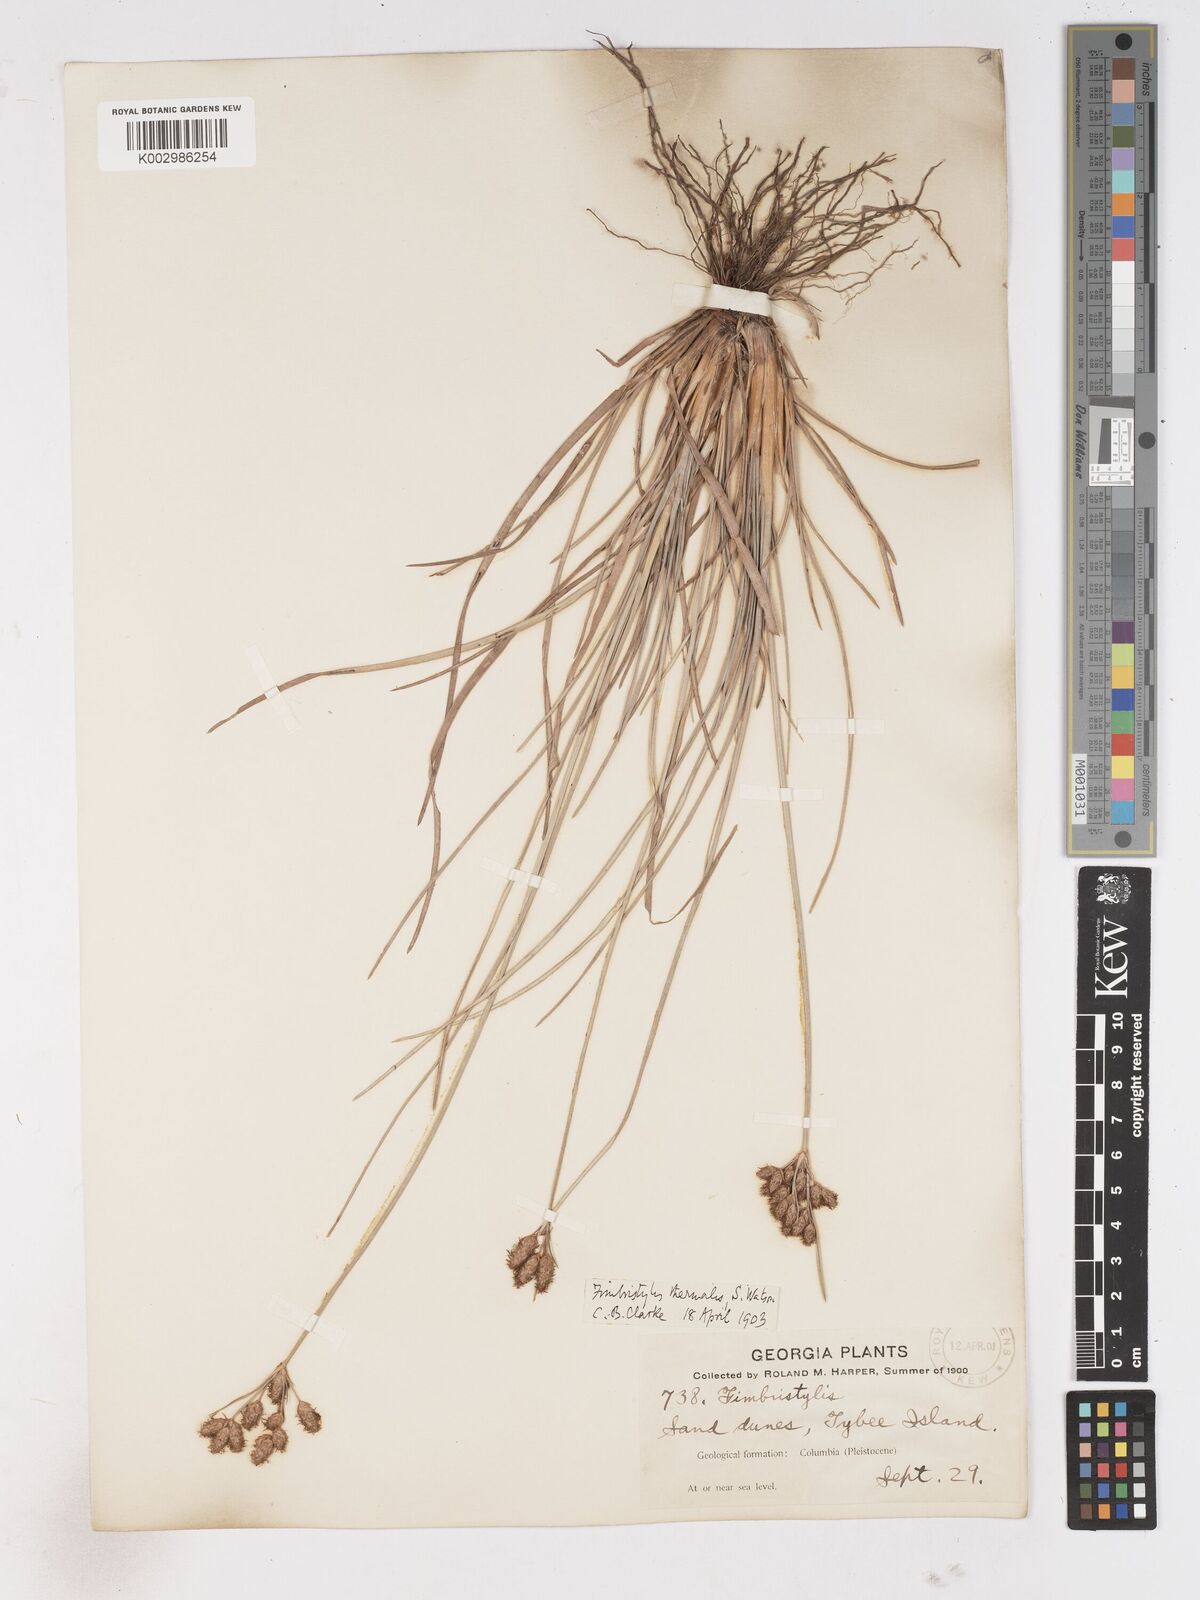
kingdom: Plantae
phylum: Tracheophyta
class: Liliopsida
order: Poales
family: Cyperaceae
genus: Fimbristylis
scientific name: Fimbristylis thermalis
